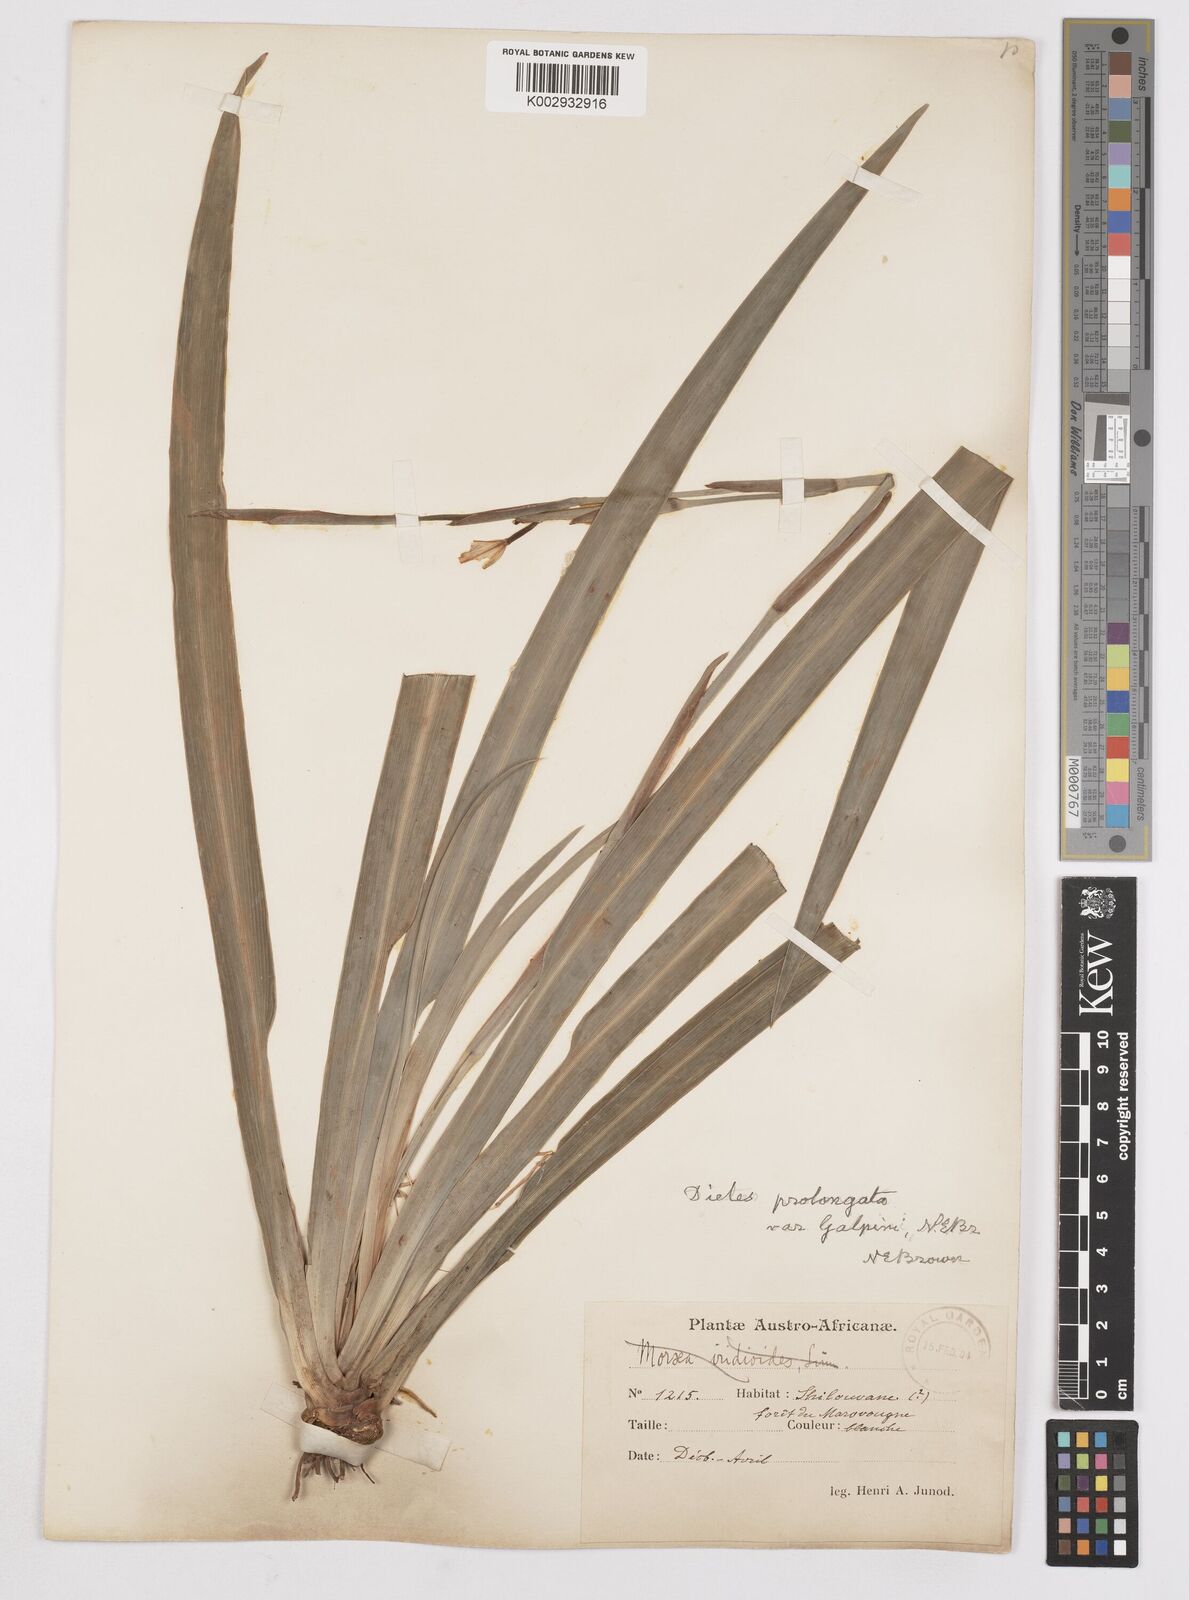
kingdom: Plantae
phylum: Tracheophyta
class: Liliopsida
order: Asparagales
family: Iridaceae
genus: Dietes
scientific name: Dietes iridioides
